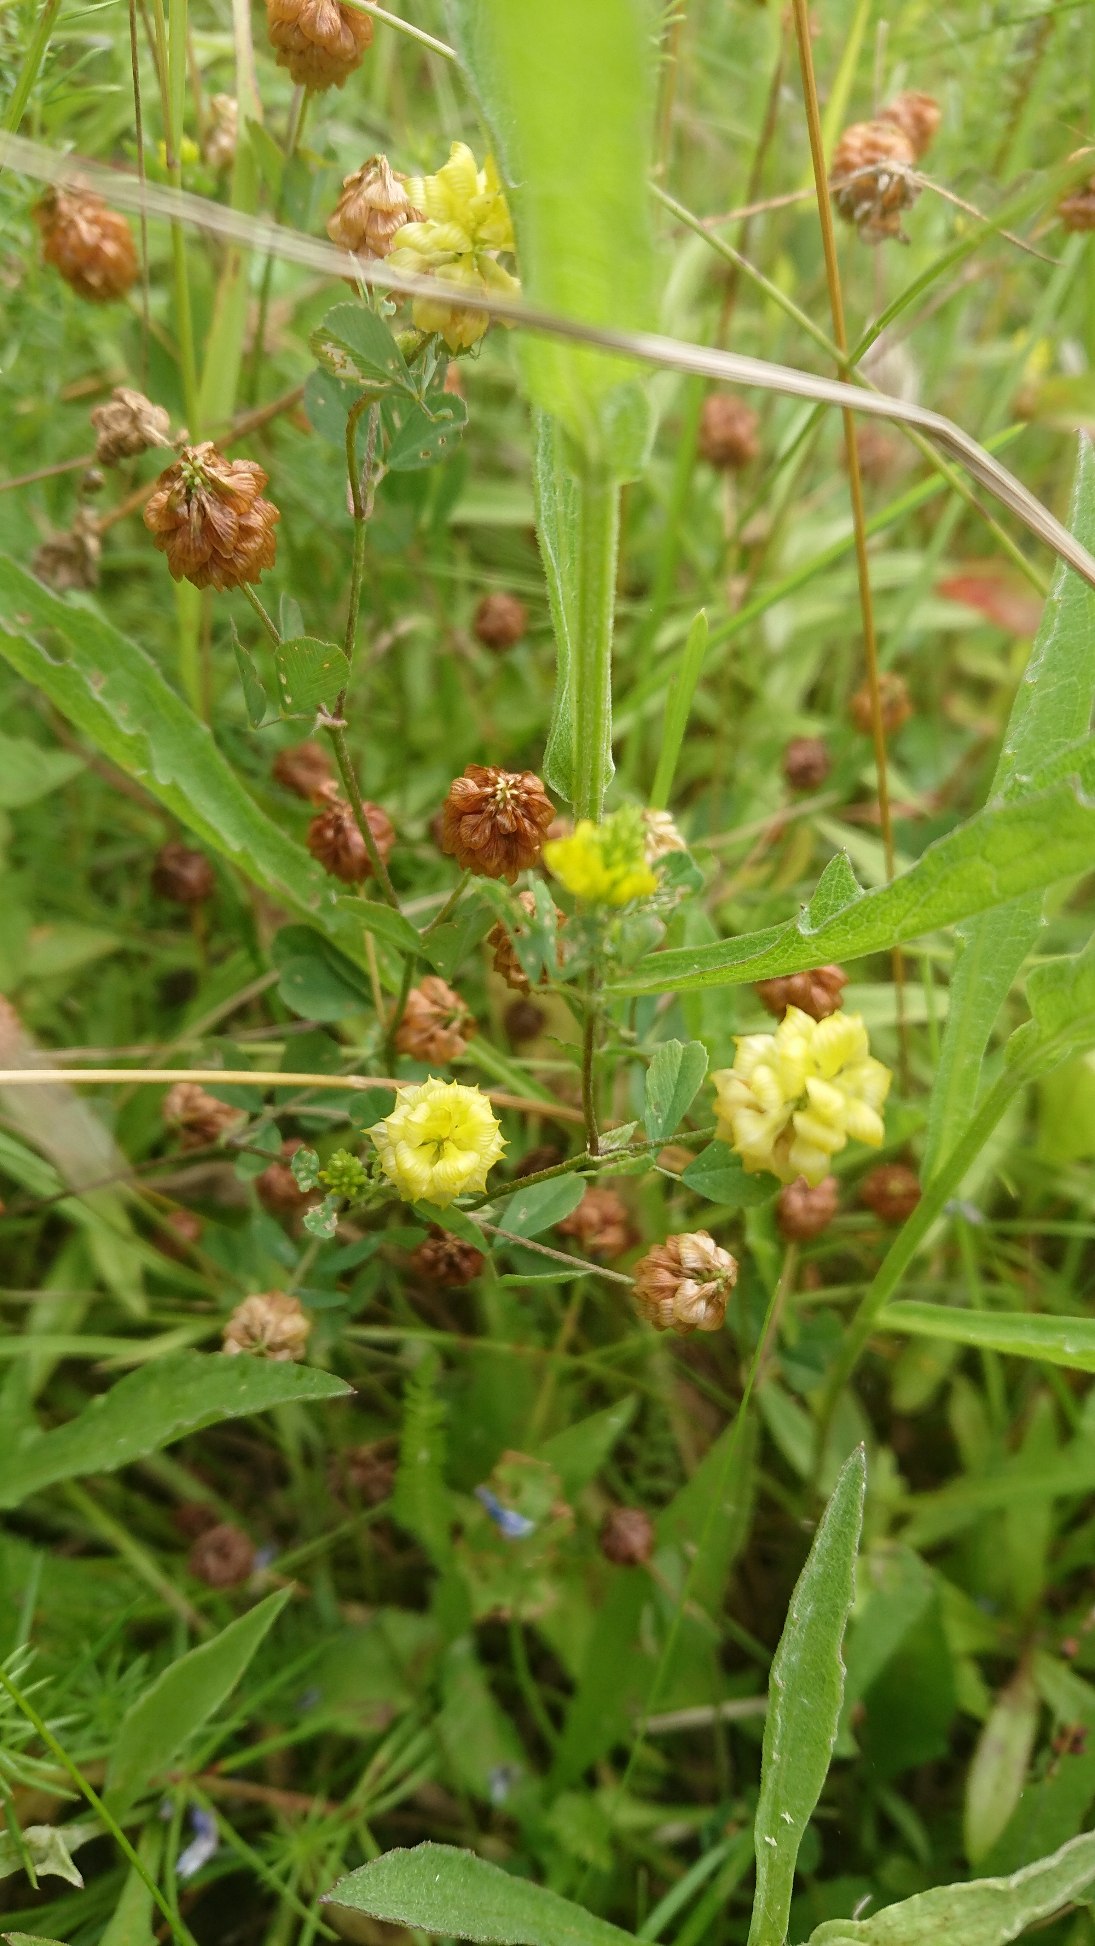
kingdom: Plantae
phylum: Tracheophyta
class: Magnoliopsida
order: Fabales
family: Fabaceae
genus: Trifolium
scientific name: Trifolium campestre
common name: Gul kløver
